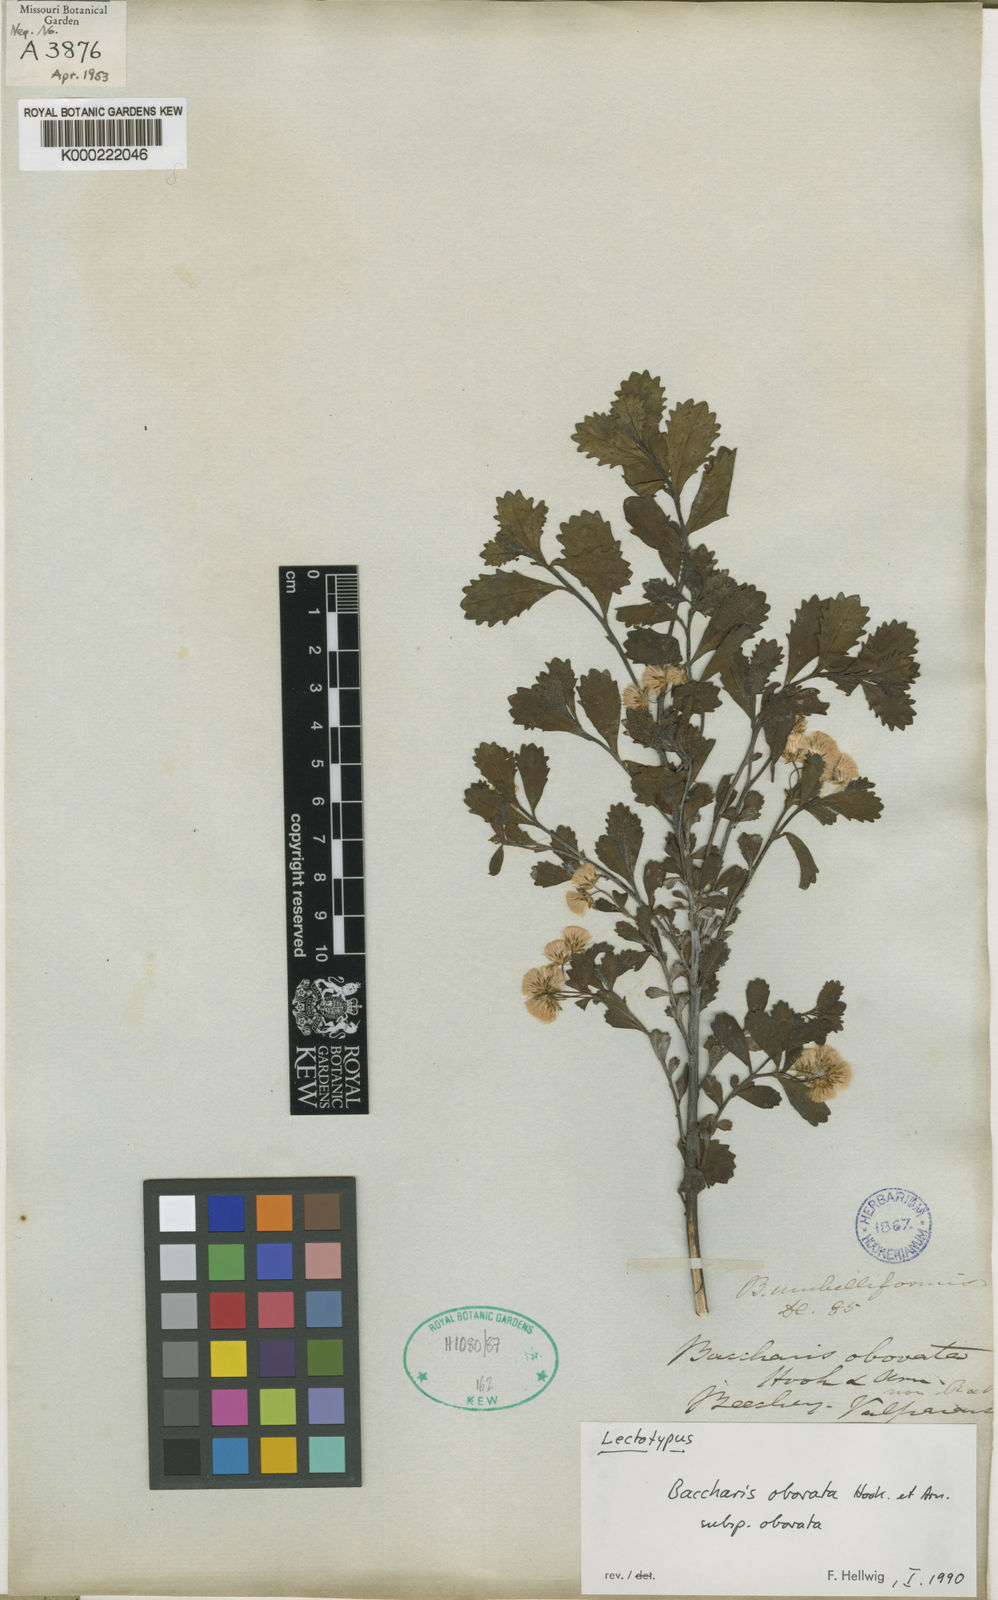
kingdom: Plantae
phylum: Tracheophyta
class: Magnoliopsida
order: Asterales
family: Asteraceae
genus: Baccharis
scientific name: Baccharis obovata
